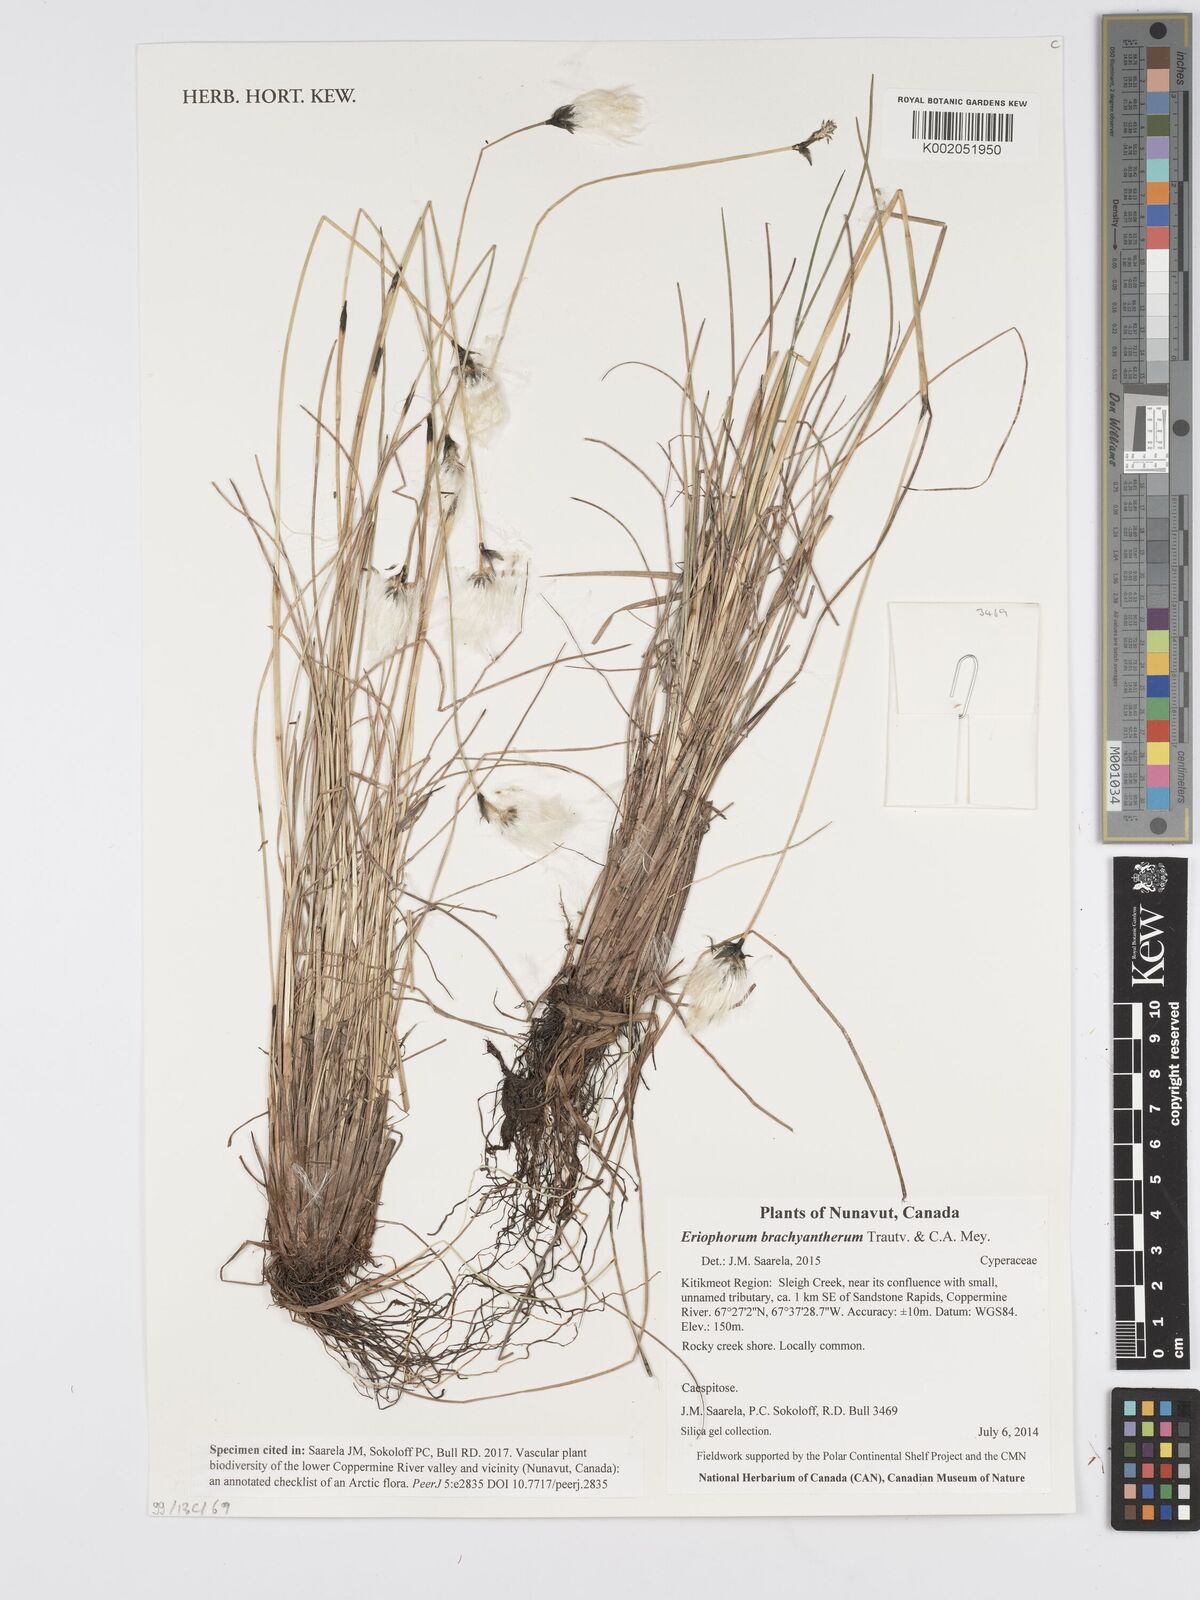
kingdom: Plantae
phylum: Tracheophyta
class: Liliopsida
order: Poales
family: Cyperaceae
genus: Eriophorum
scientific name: Eriophorum brachyantherum
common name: Closed-sheathed cottongrass
